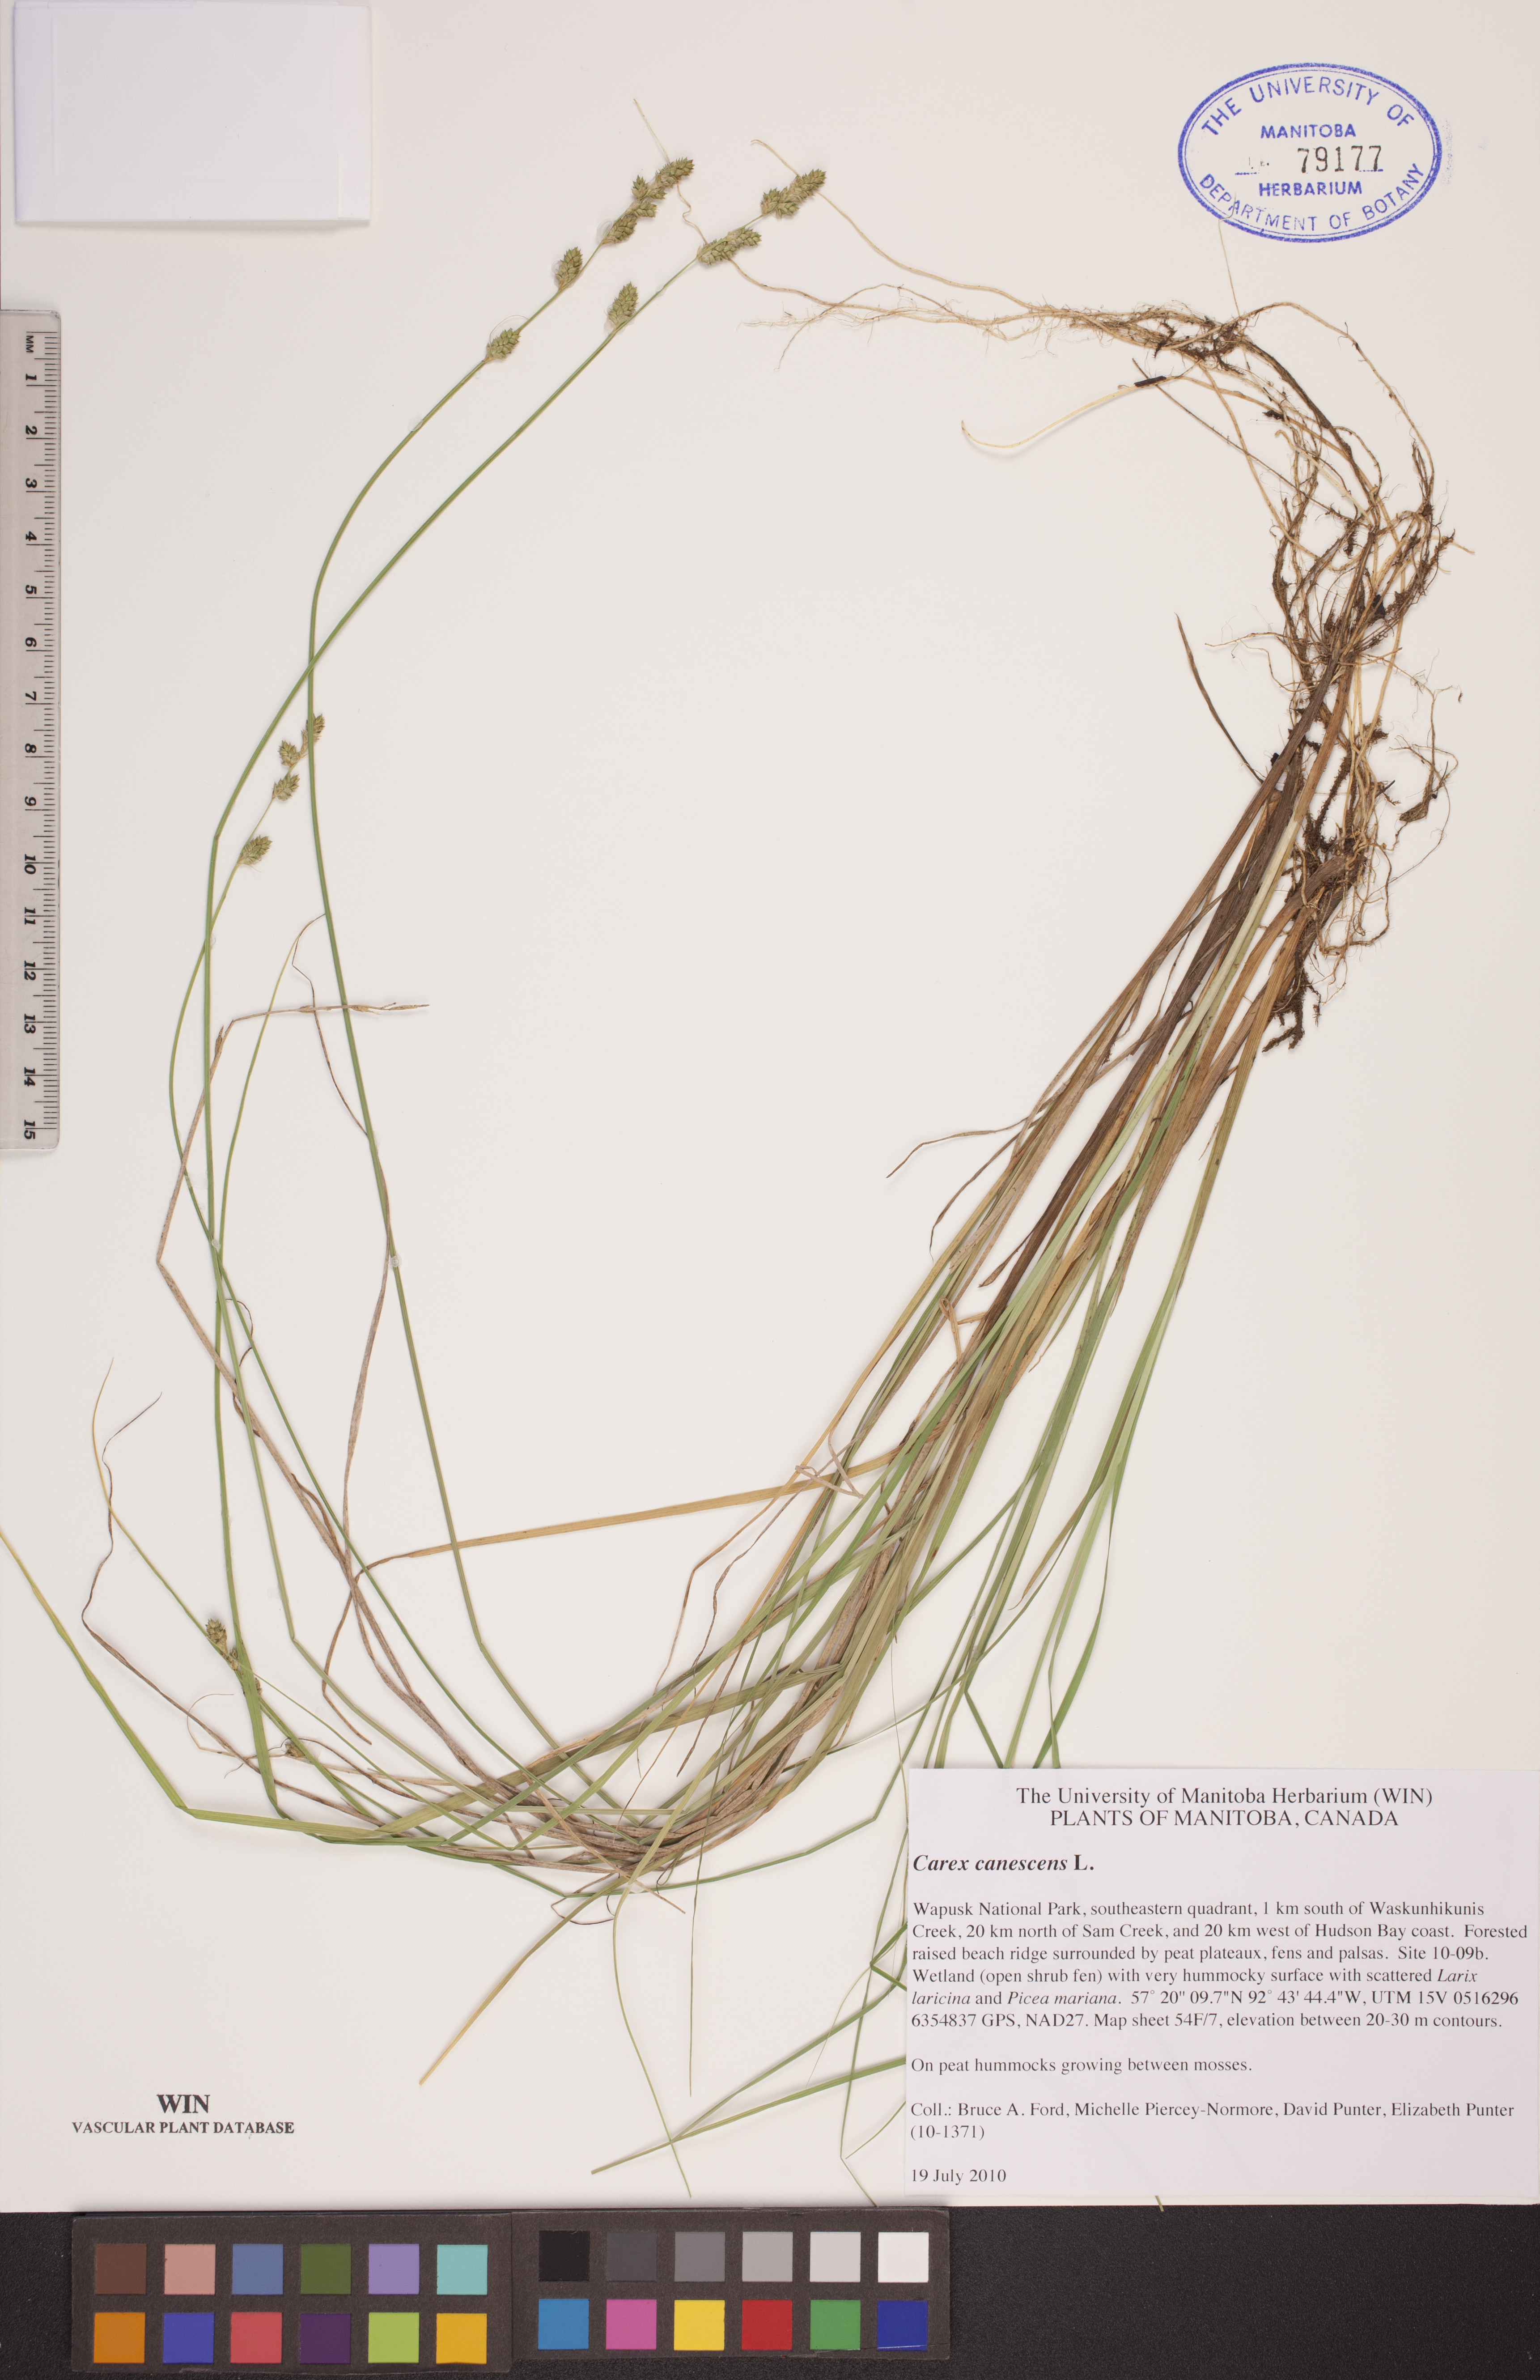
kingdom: Plantae
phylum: Tracheophyta
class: Liliopsida
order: Poales
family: Cyperaceae
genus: Carex
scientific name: Carex canescens
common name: White sedge
